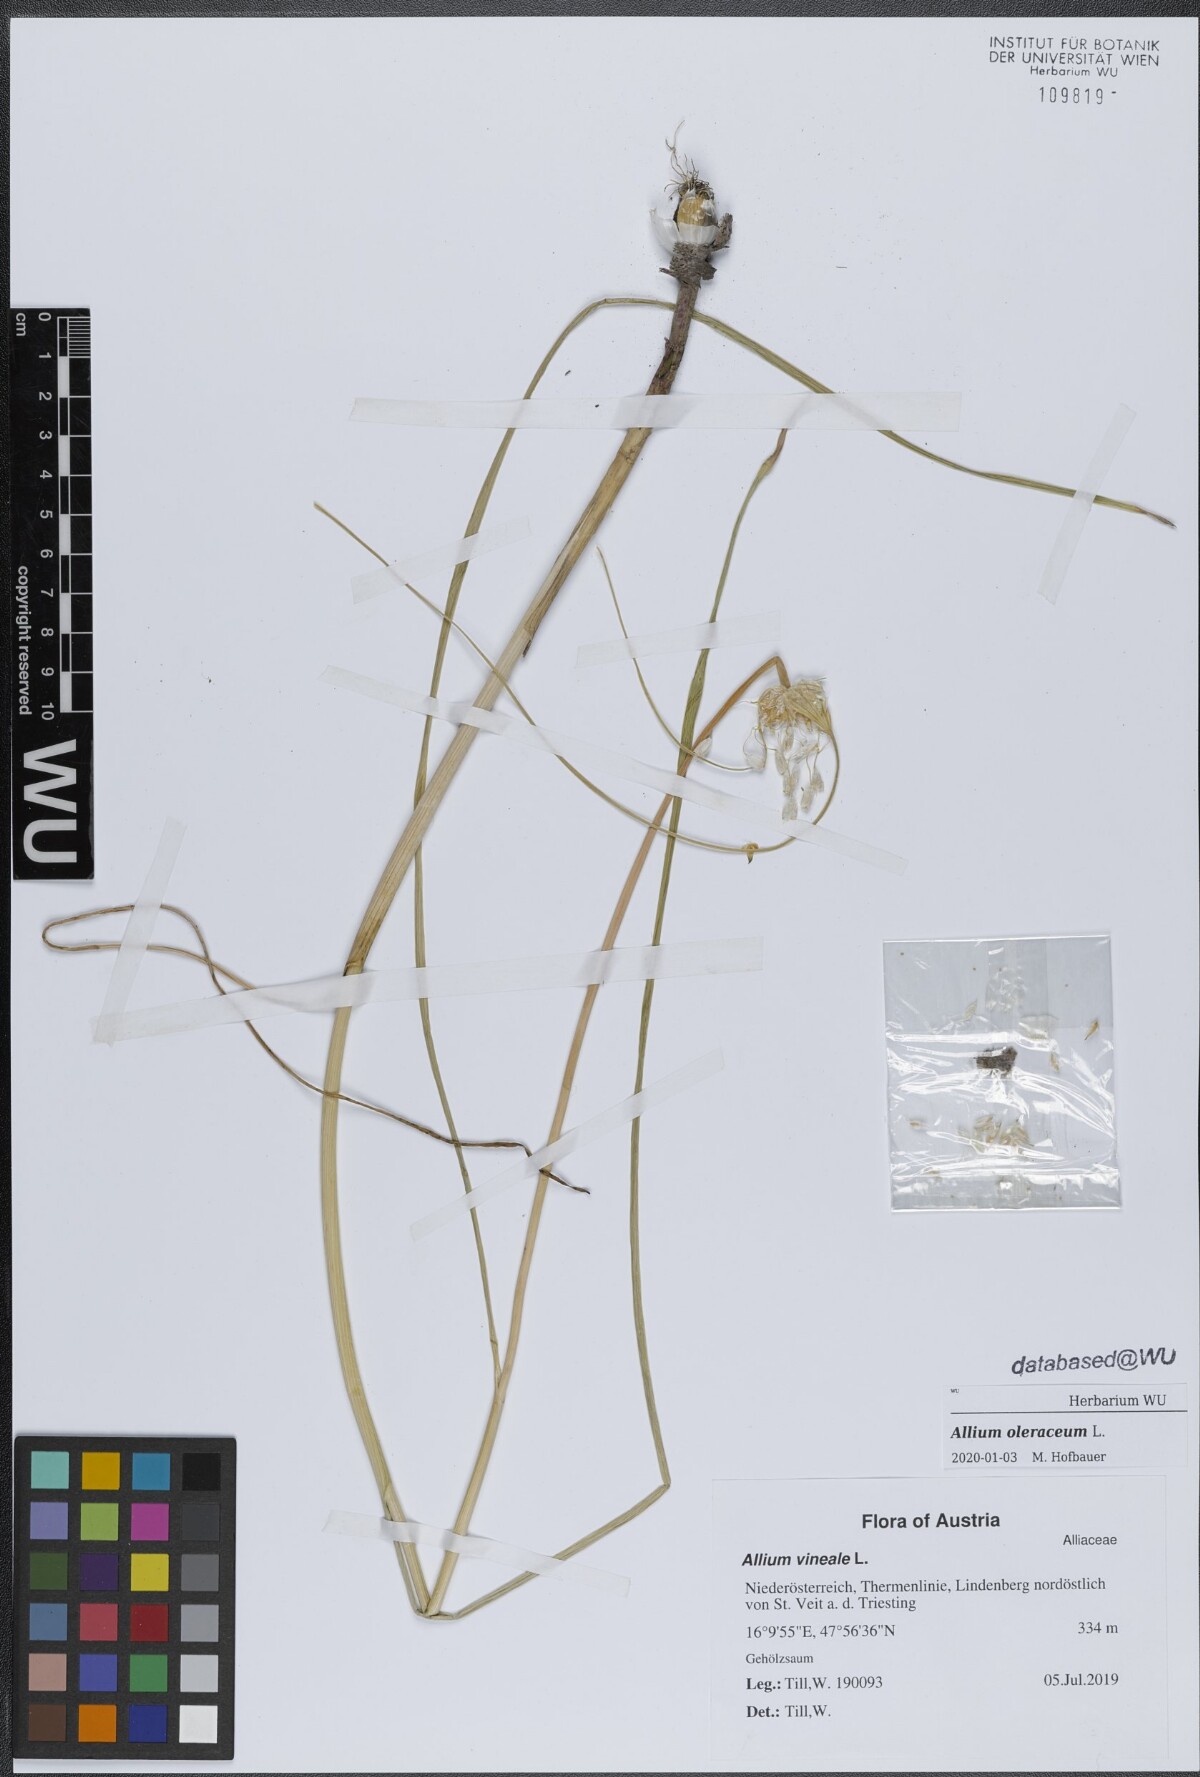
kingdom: Plantae
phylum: Tracheophyta
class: Liliopsida
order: Asparagales
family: Amaryllidaceae
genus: Allium
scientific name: Allium oleraceum
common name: Field garlic
